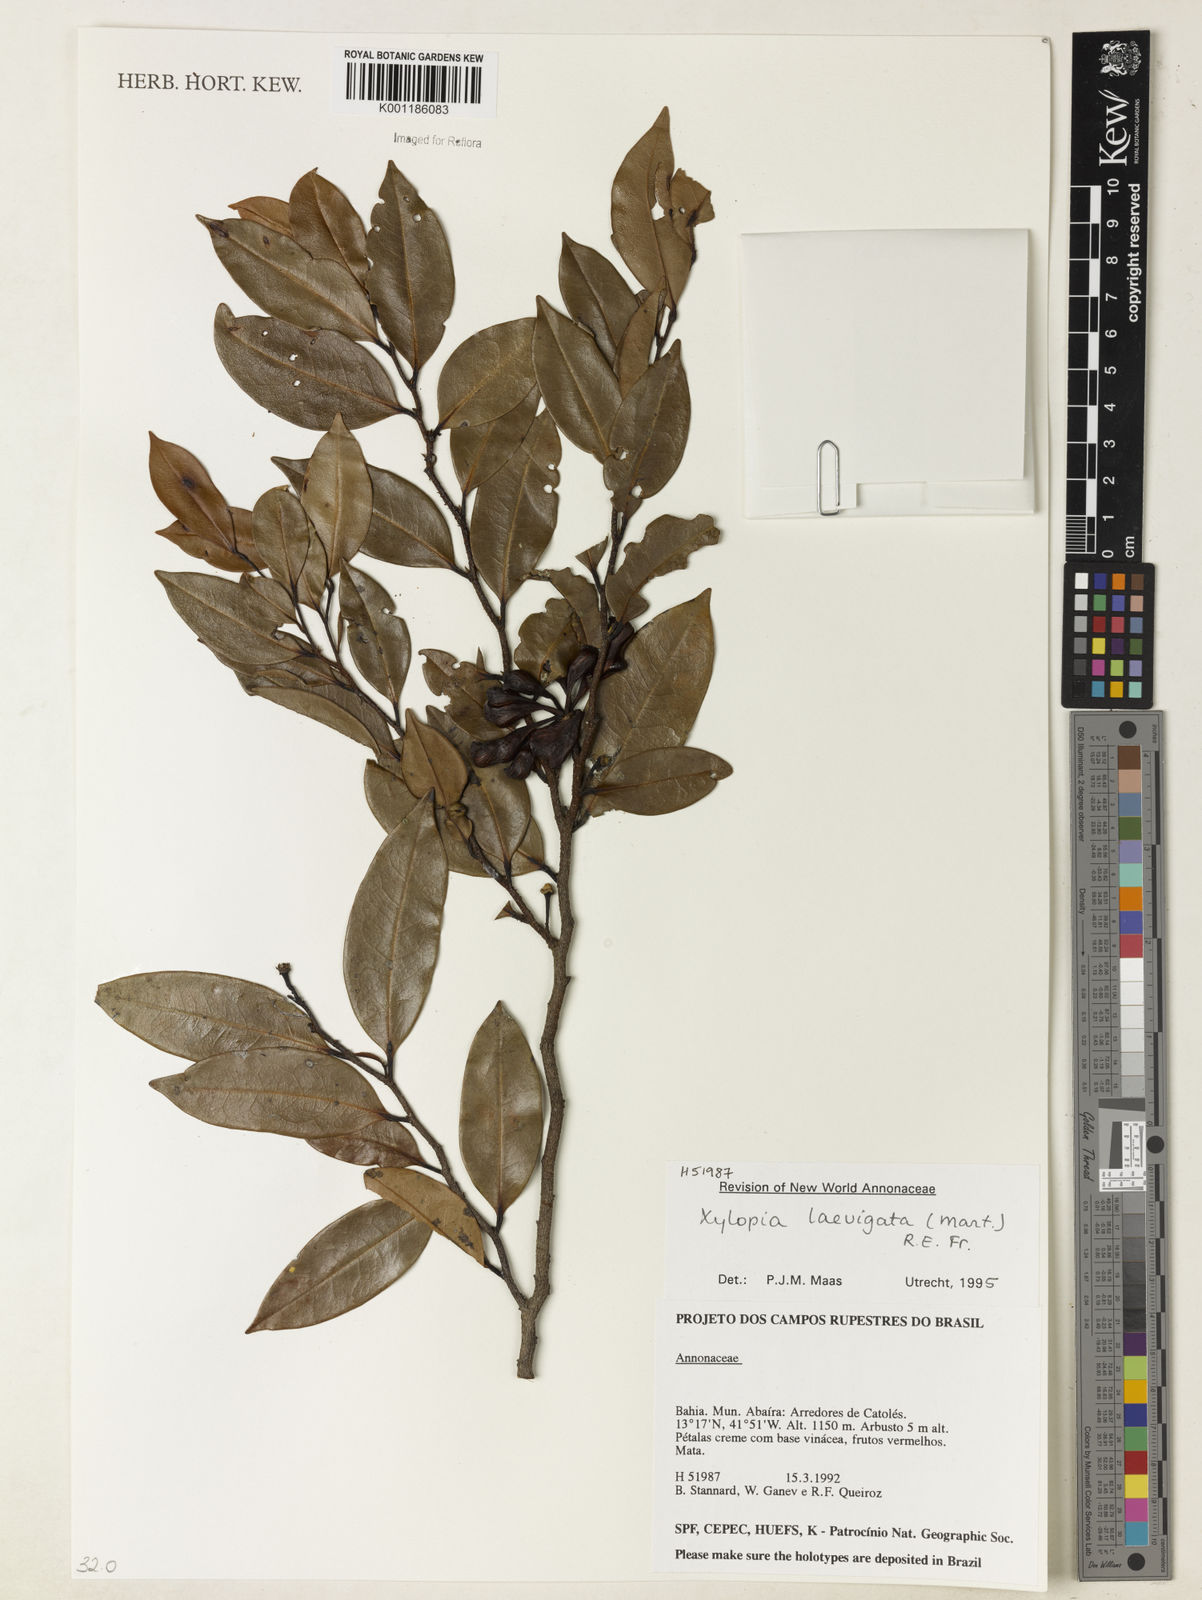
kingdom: Plantae
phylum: Tracheophyta
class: Magnoliopsida
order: Magnoliales
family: Annonaceae
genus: Xylopia
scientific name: Xylopia laevigata
